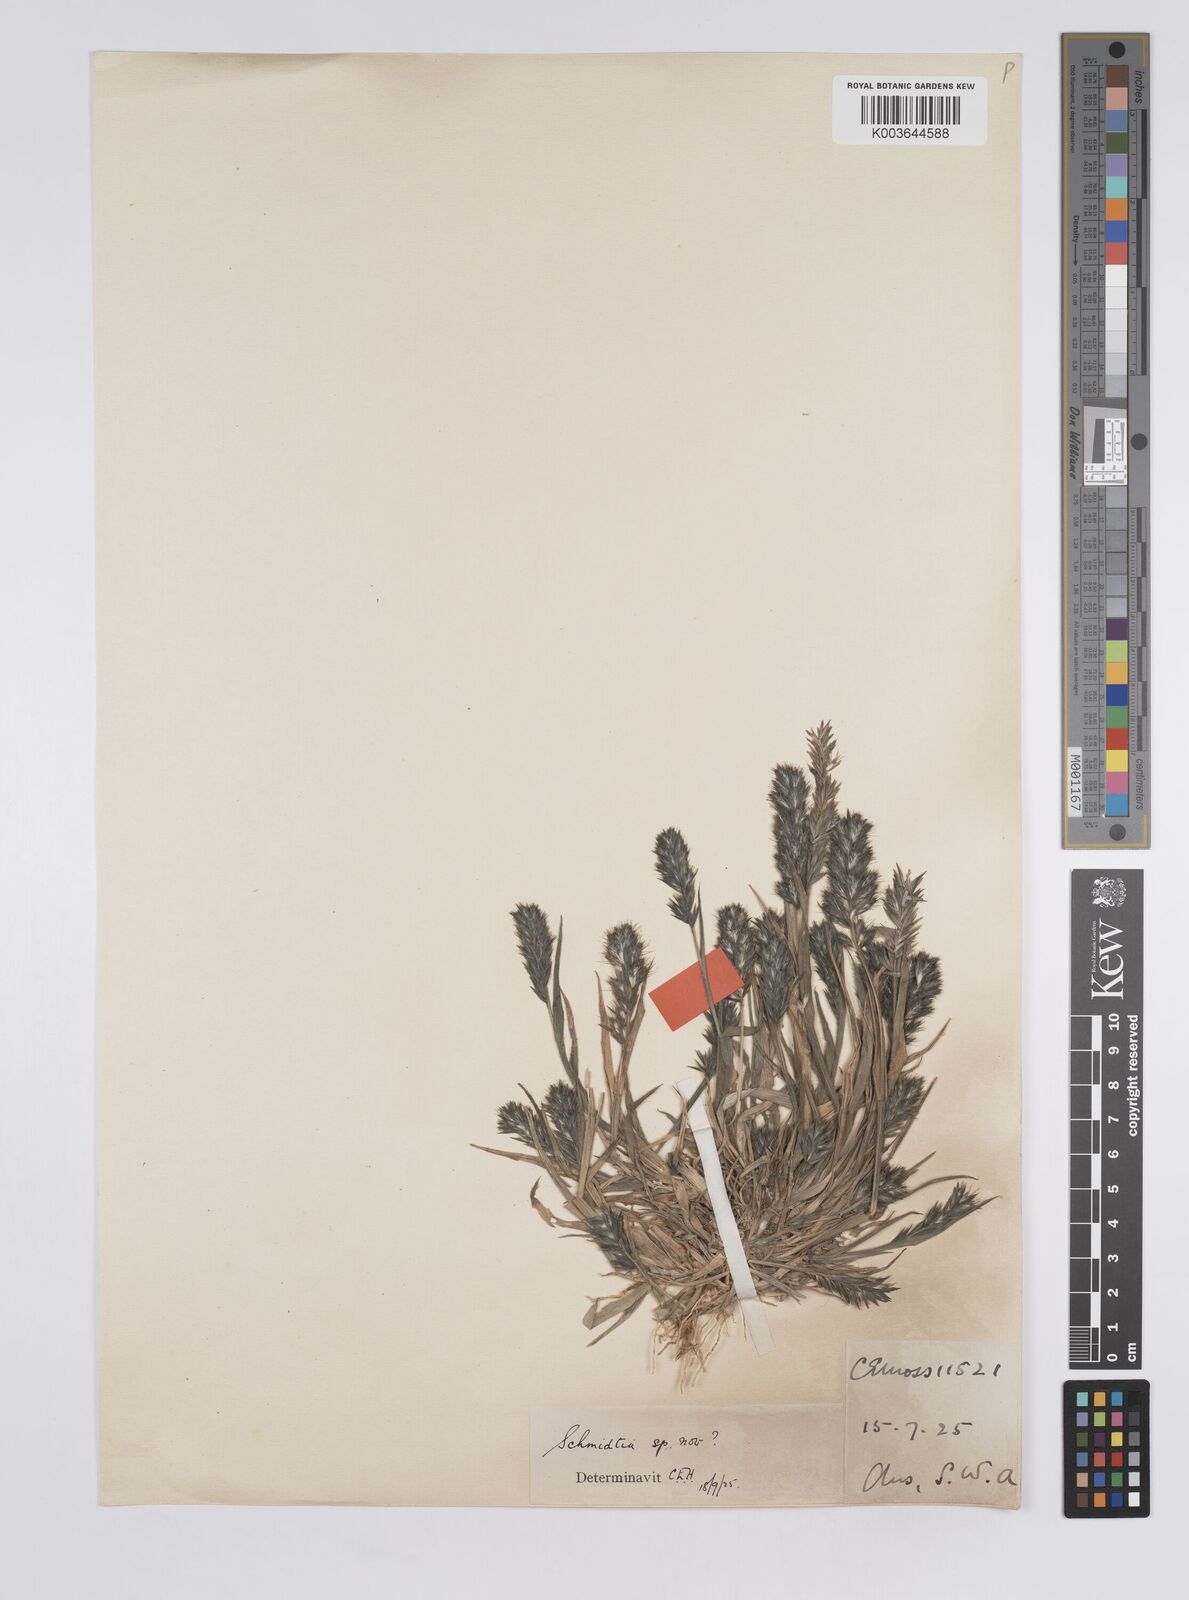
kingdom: Plantae
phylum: Tracheophyta
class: Liliopsida
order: Poales
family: Poaceae
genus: Schmidtia
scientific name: Schmidtia kalahariensis
